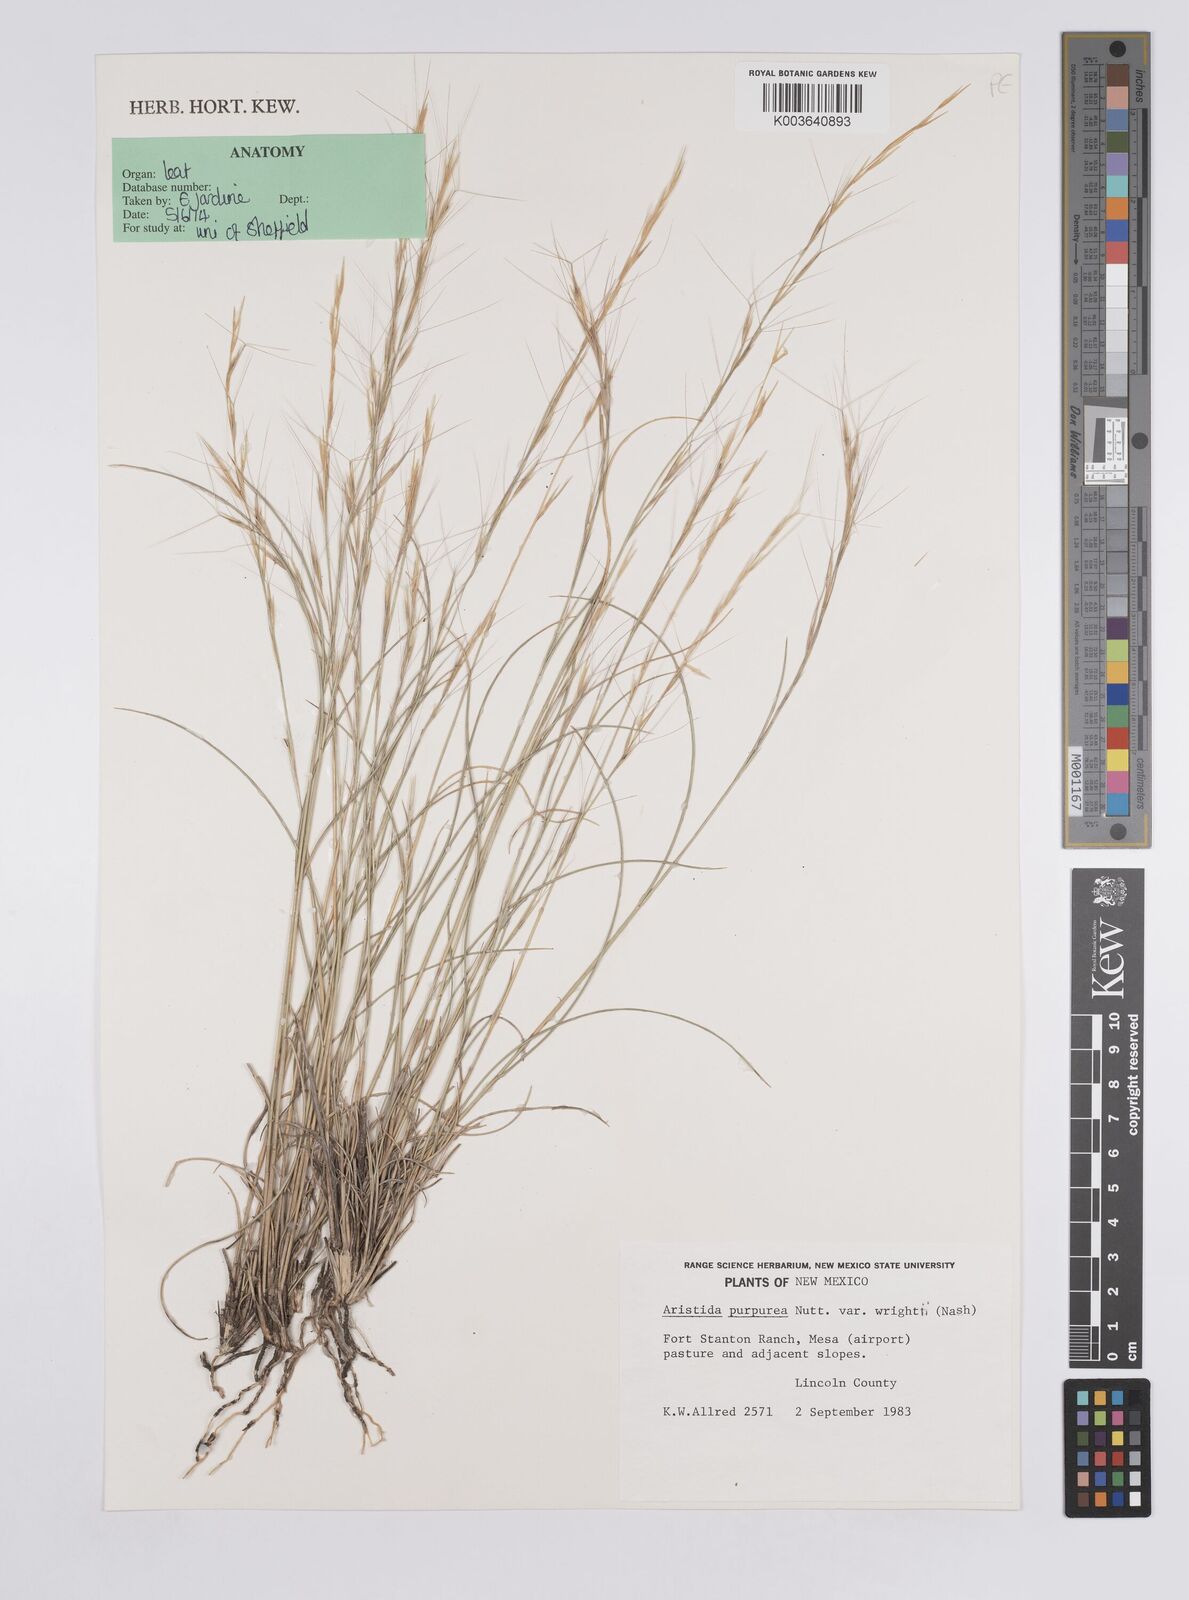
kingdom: Plantae
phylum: Tracheophyta
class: Liliopsida
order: Poales
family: Poaceae
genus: Aristida
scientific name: Aristida purpurea
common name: Purple threeawn
